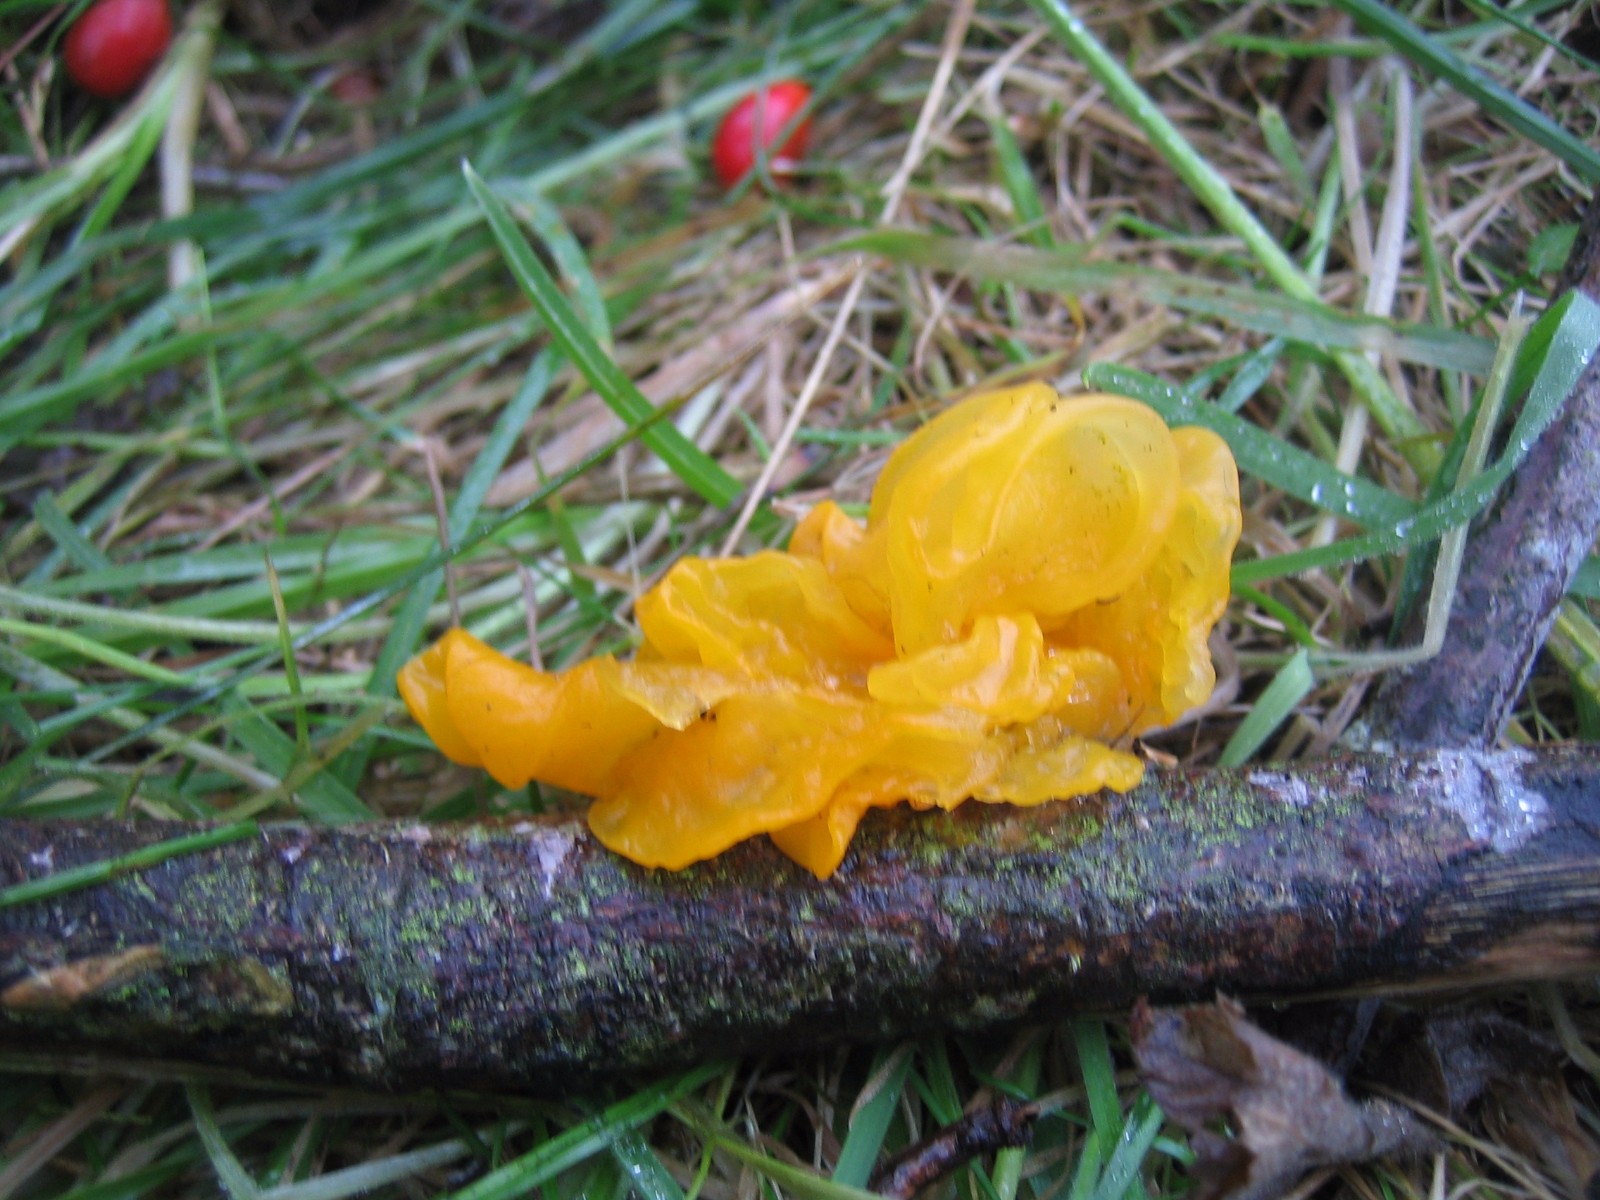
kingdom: Fungi
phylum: Basidiomycota
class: Tremellomycetes
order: Tremellales
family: Tremellaceae
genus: Tremella
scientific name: Tremella mesenterica
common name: gul bævresvamp
